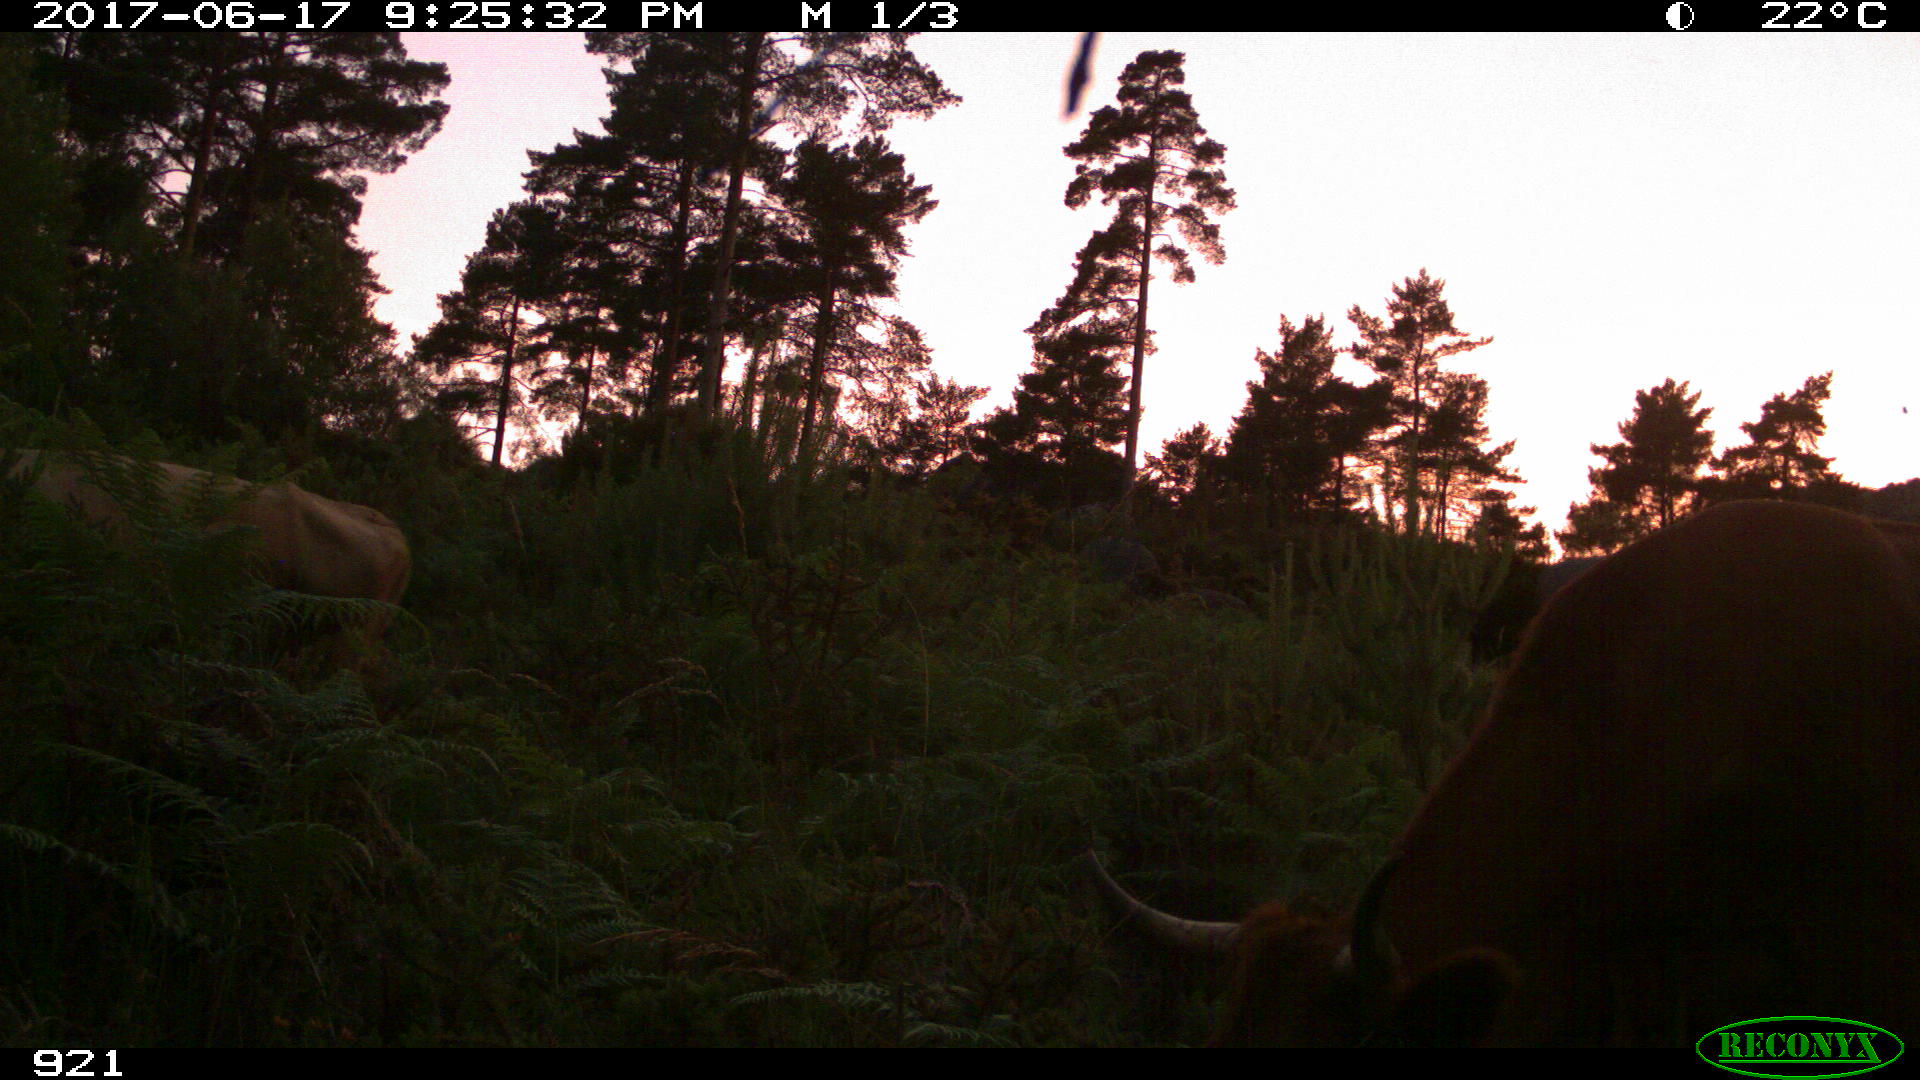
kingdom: Animalia
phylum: Chordata
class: Mammalia
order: Artiodactyla
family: Bovidae
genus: Bos
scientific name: Bos taurus
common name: Domesticated cattle
